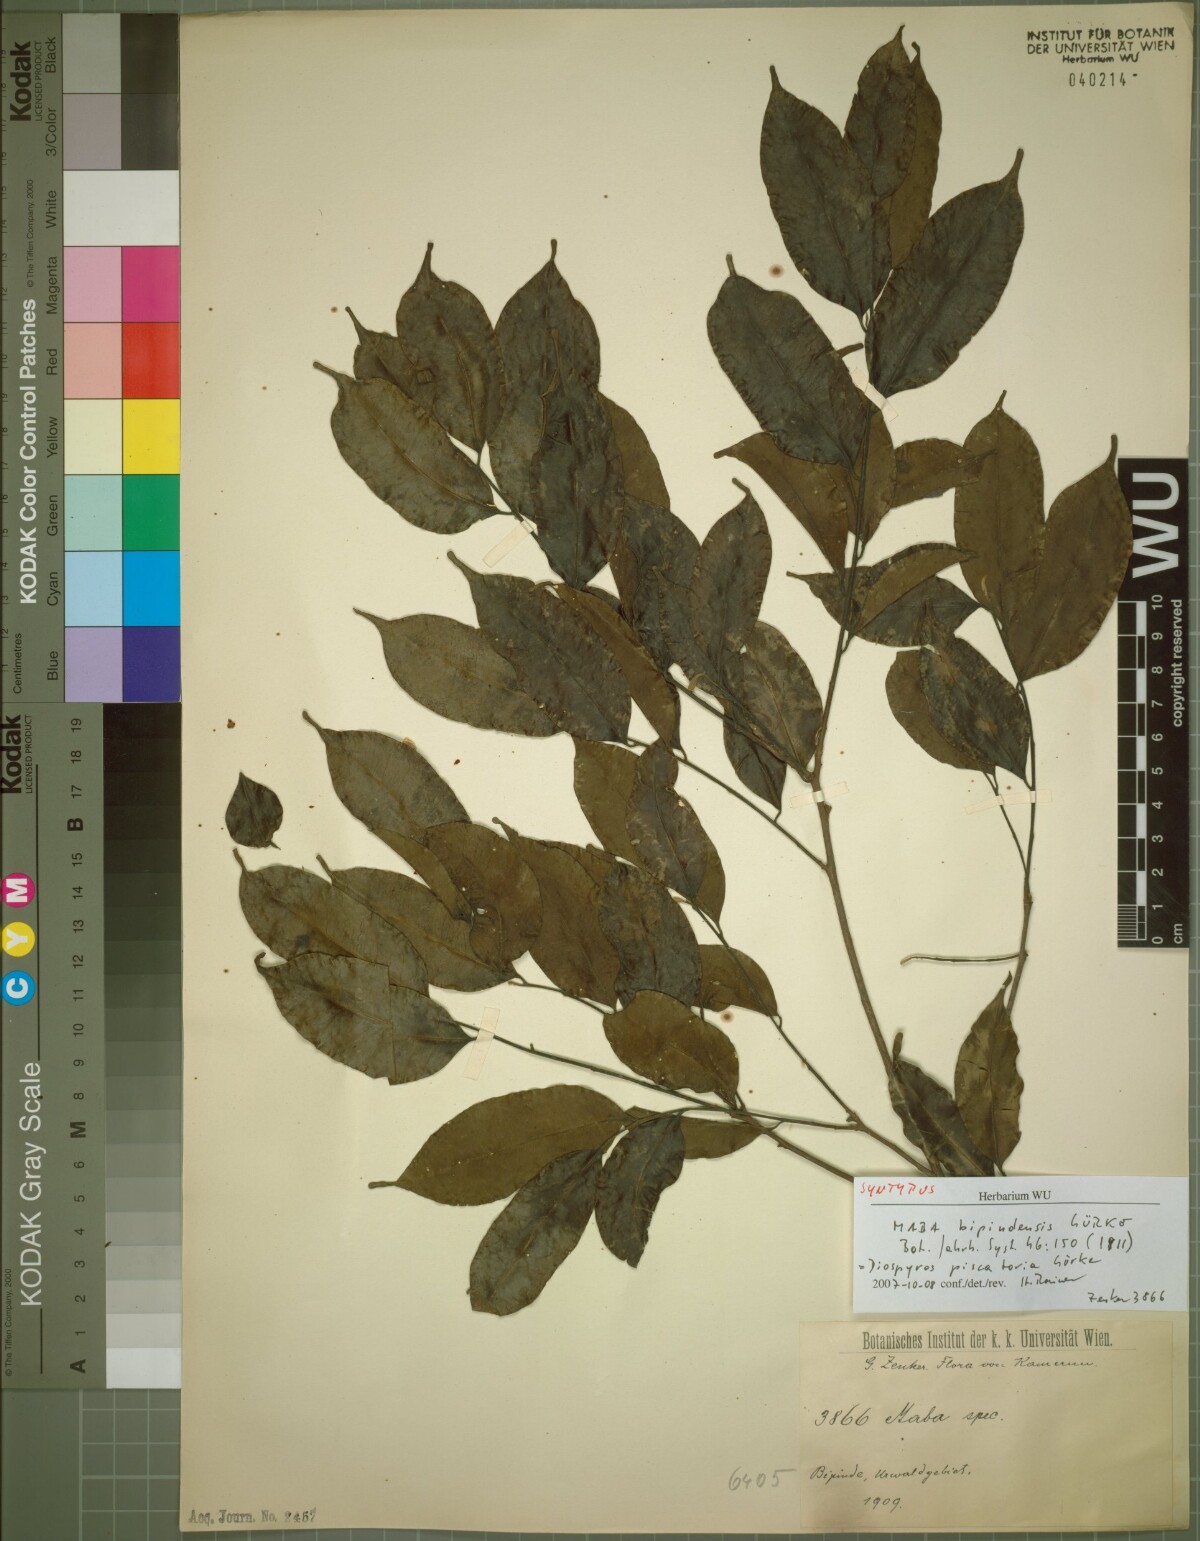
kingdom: Plantae
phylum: Tracheophyta
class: Magnoliopsida
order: Ericales
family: Ebenaceae
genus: Diospyros
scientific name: Diospyros piscatoria
